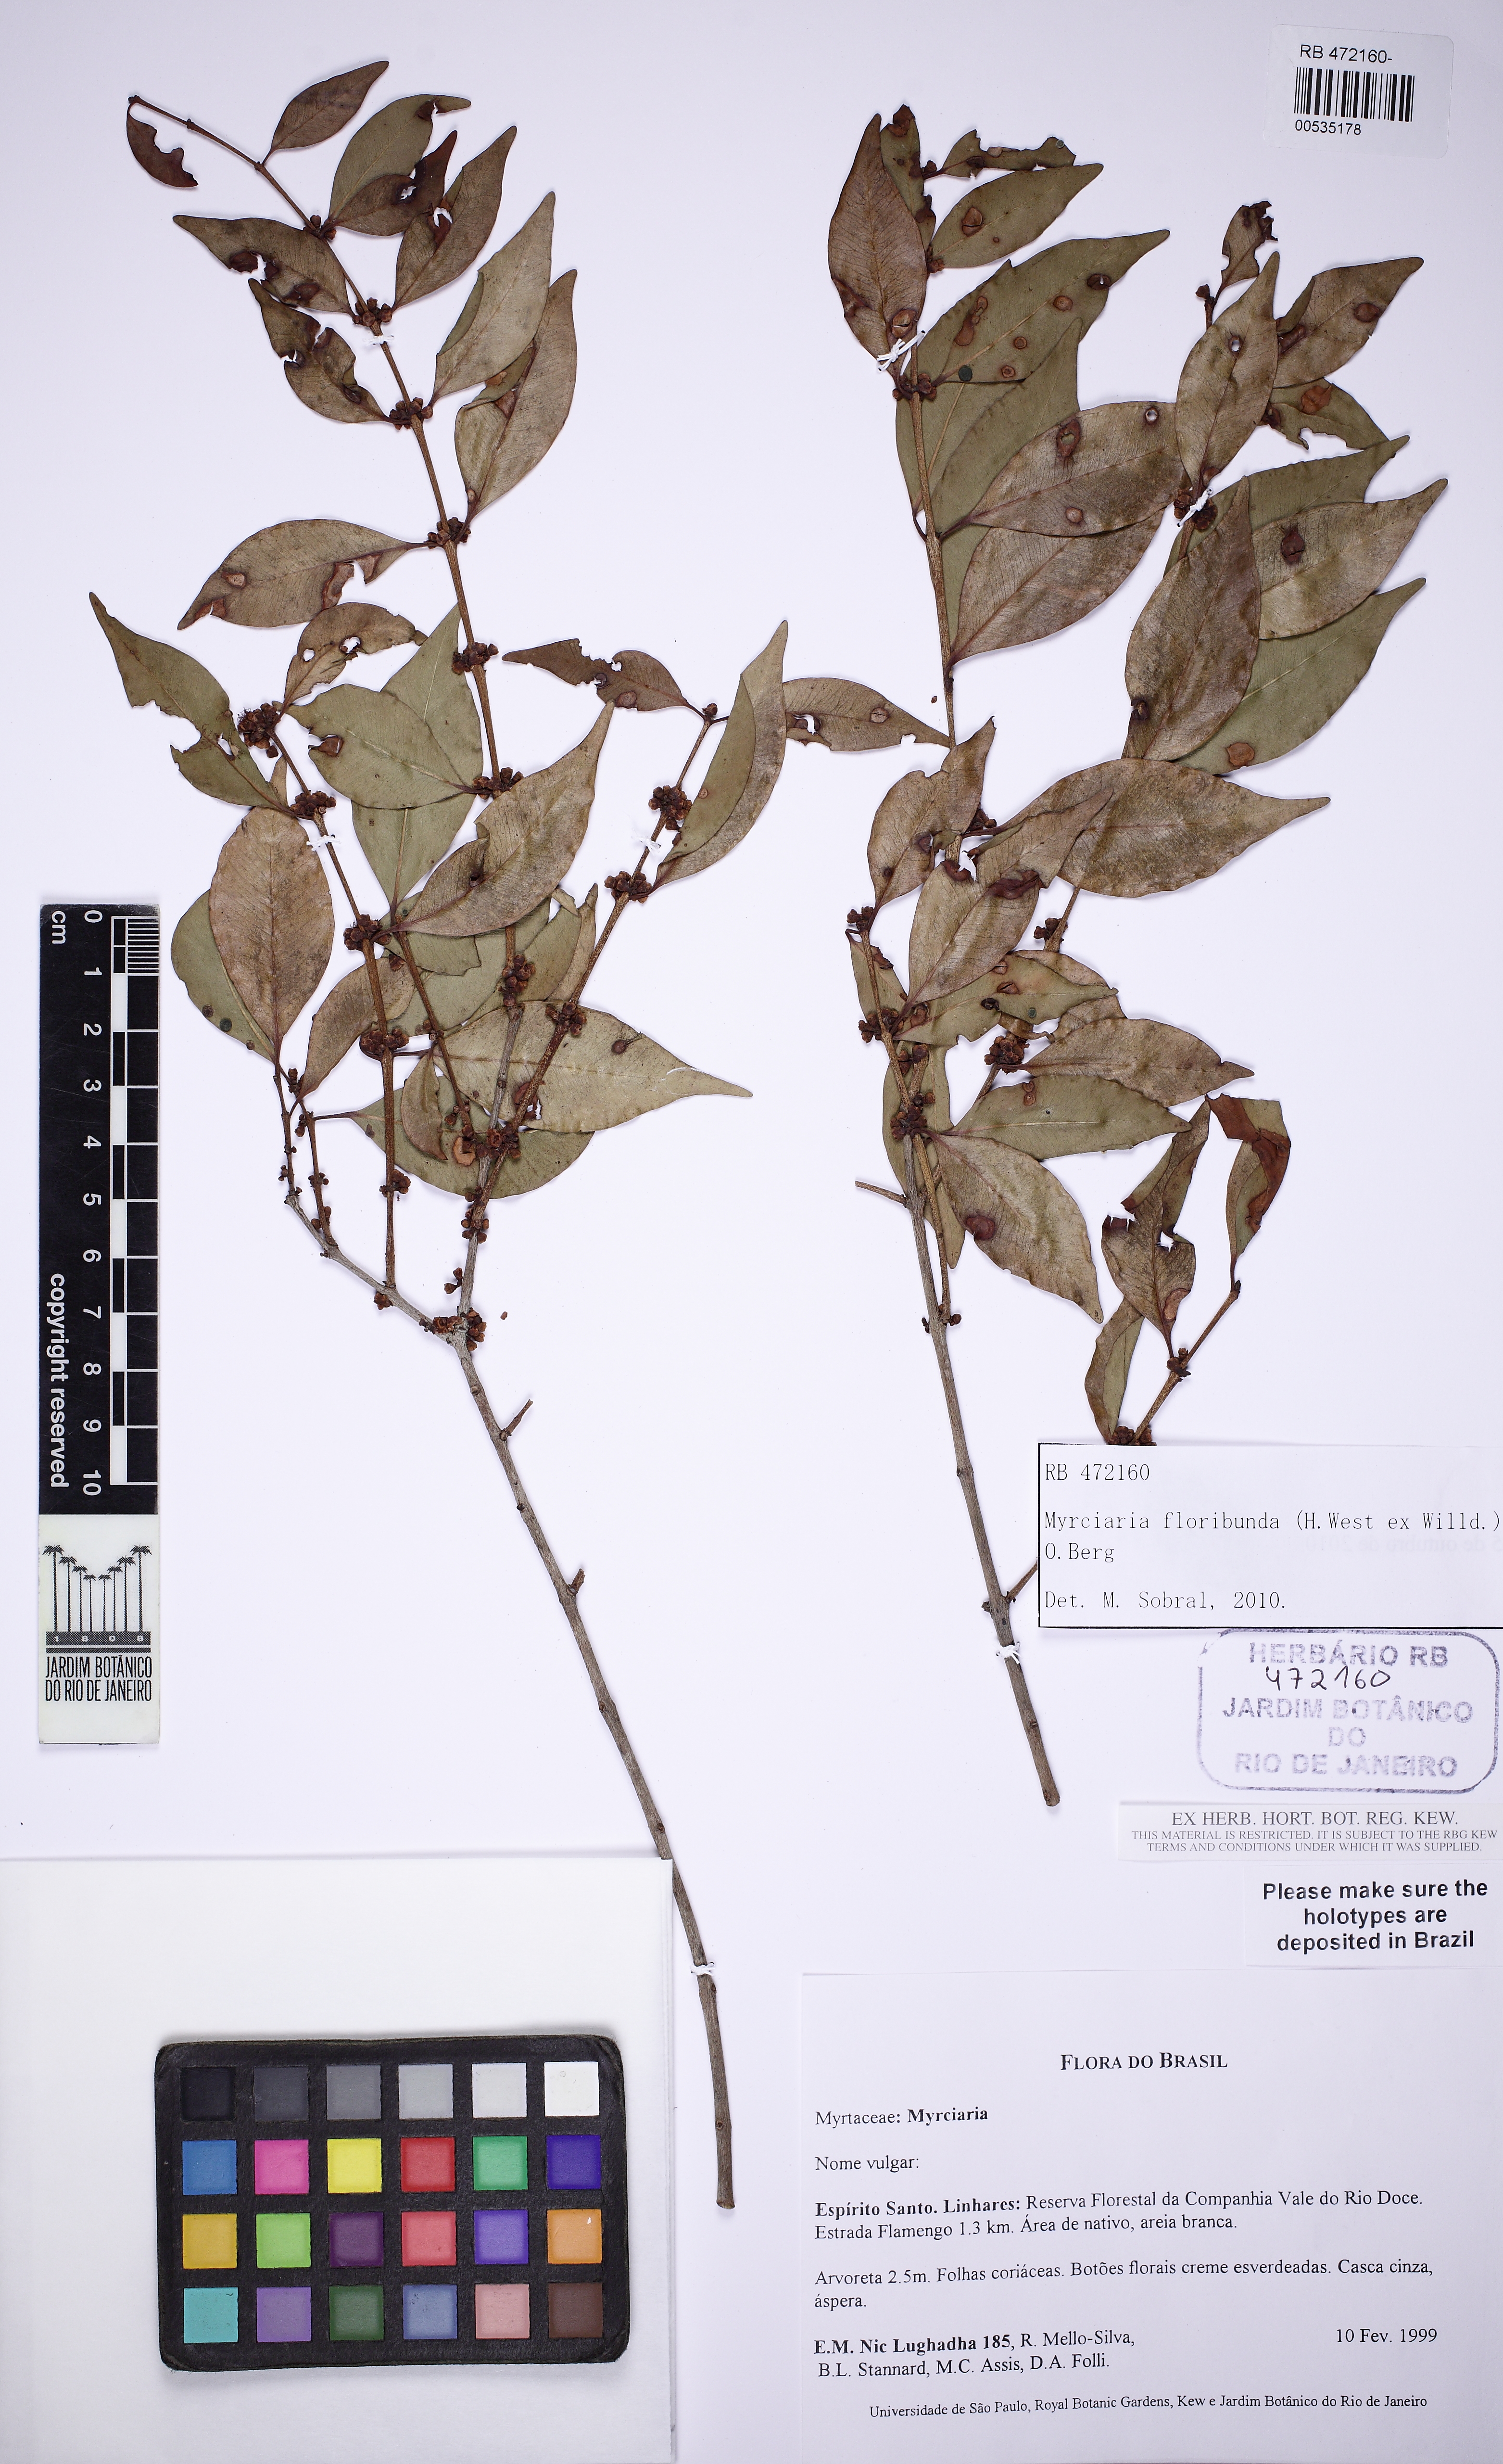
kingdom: Plantae
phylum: Tracheophyta
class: Magnoliopsida
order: Myrtales
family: Myrtaceae
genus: Myrciaria
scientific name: Myrciaria floribunda
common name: Guavaberry
